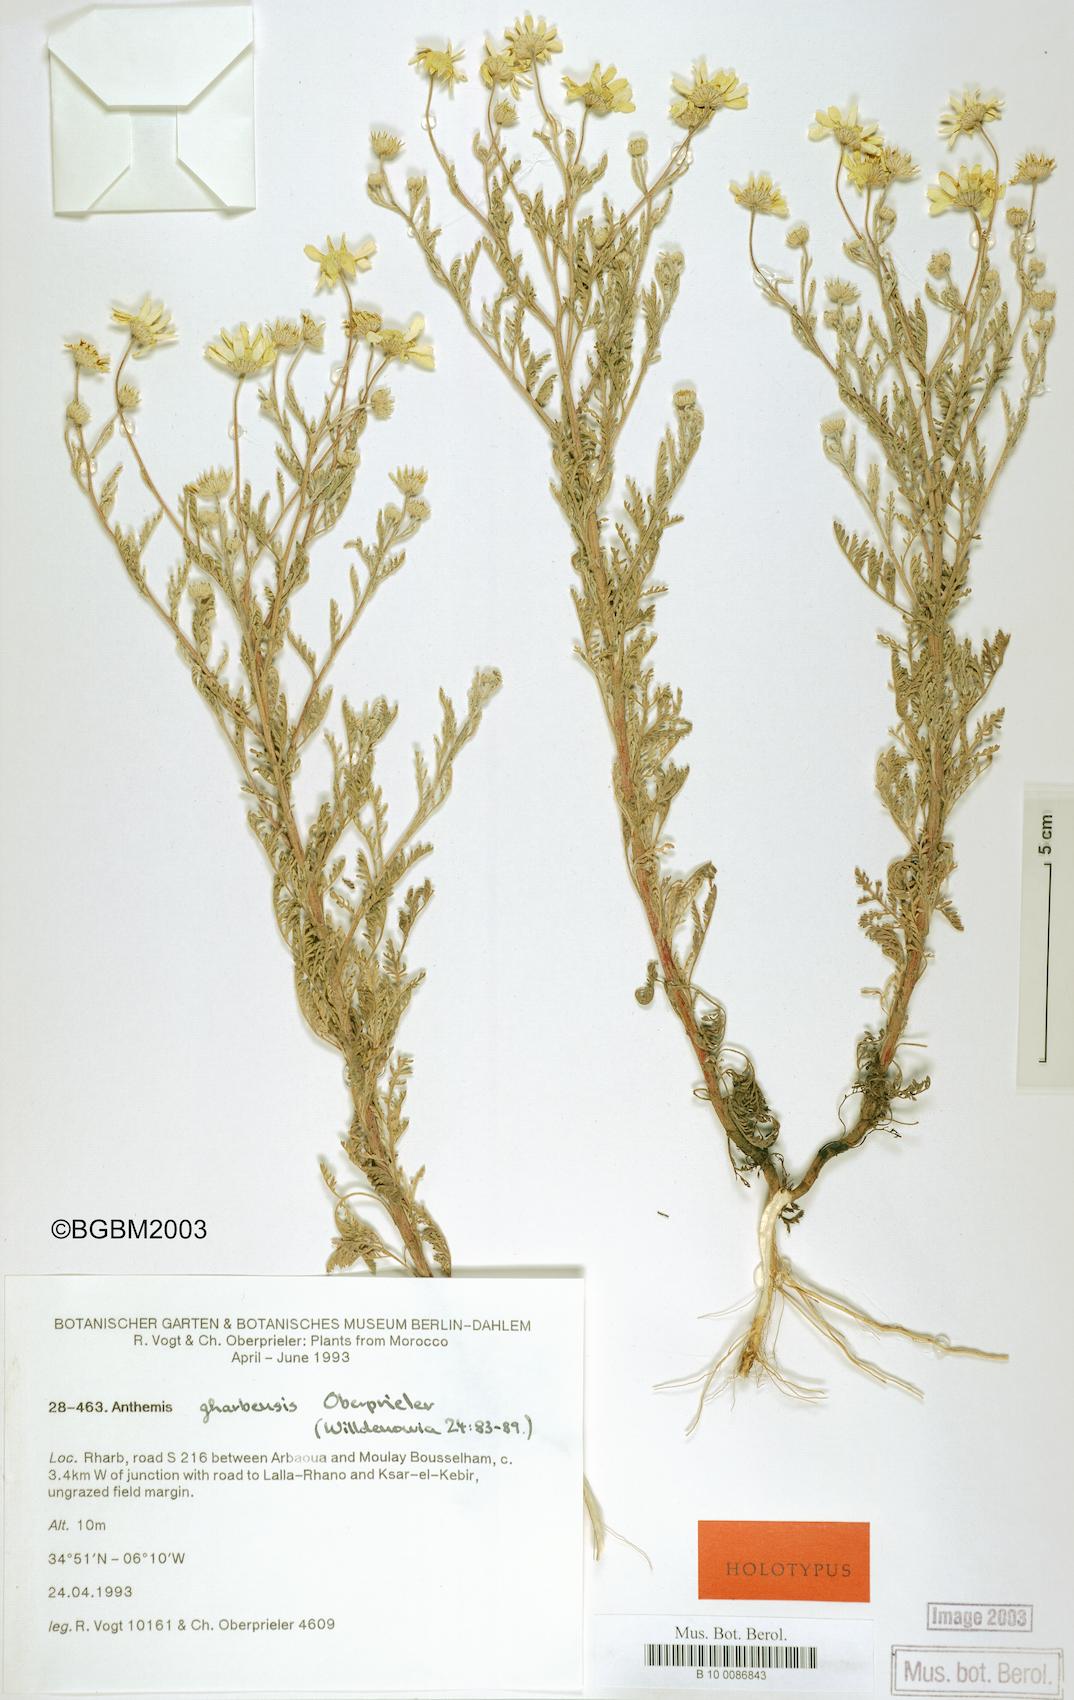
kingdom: Plantae
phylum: Tracheophyta
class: Magnoliopsida
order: Asterales
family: Asteraceae
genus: Anthemis
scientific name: Anthemis gharbensis
